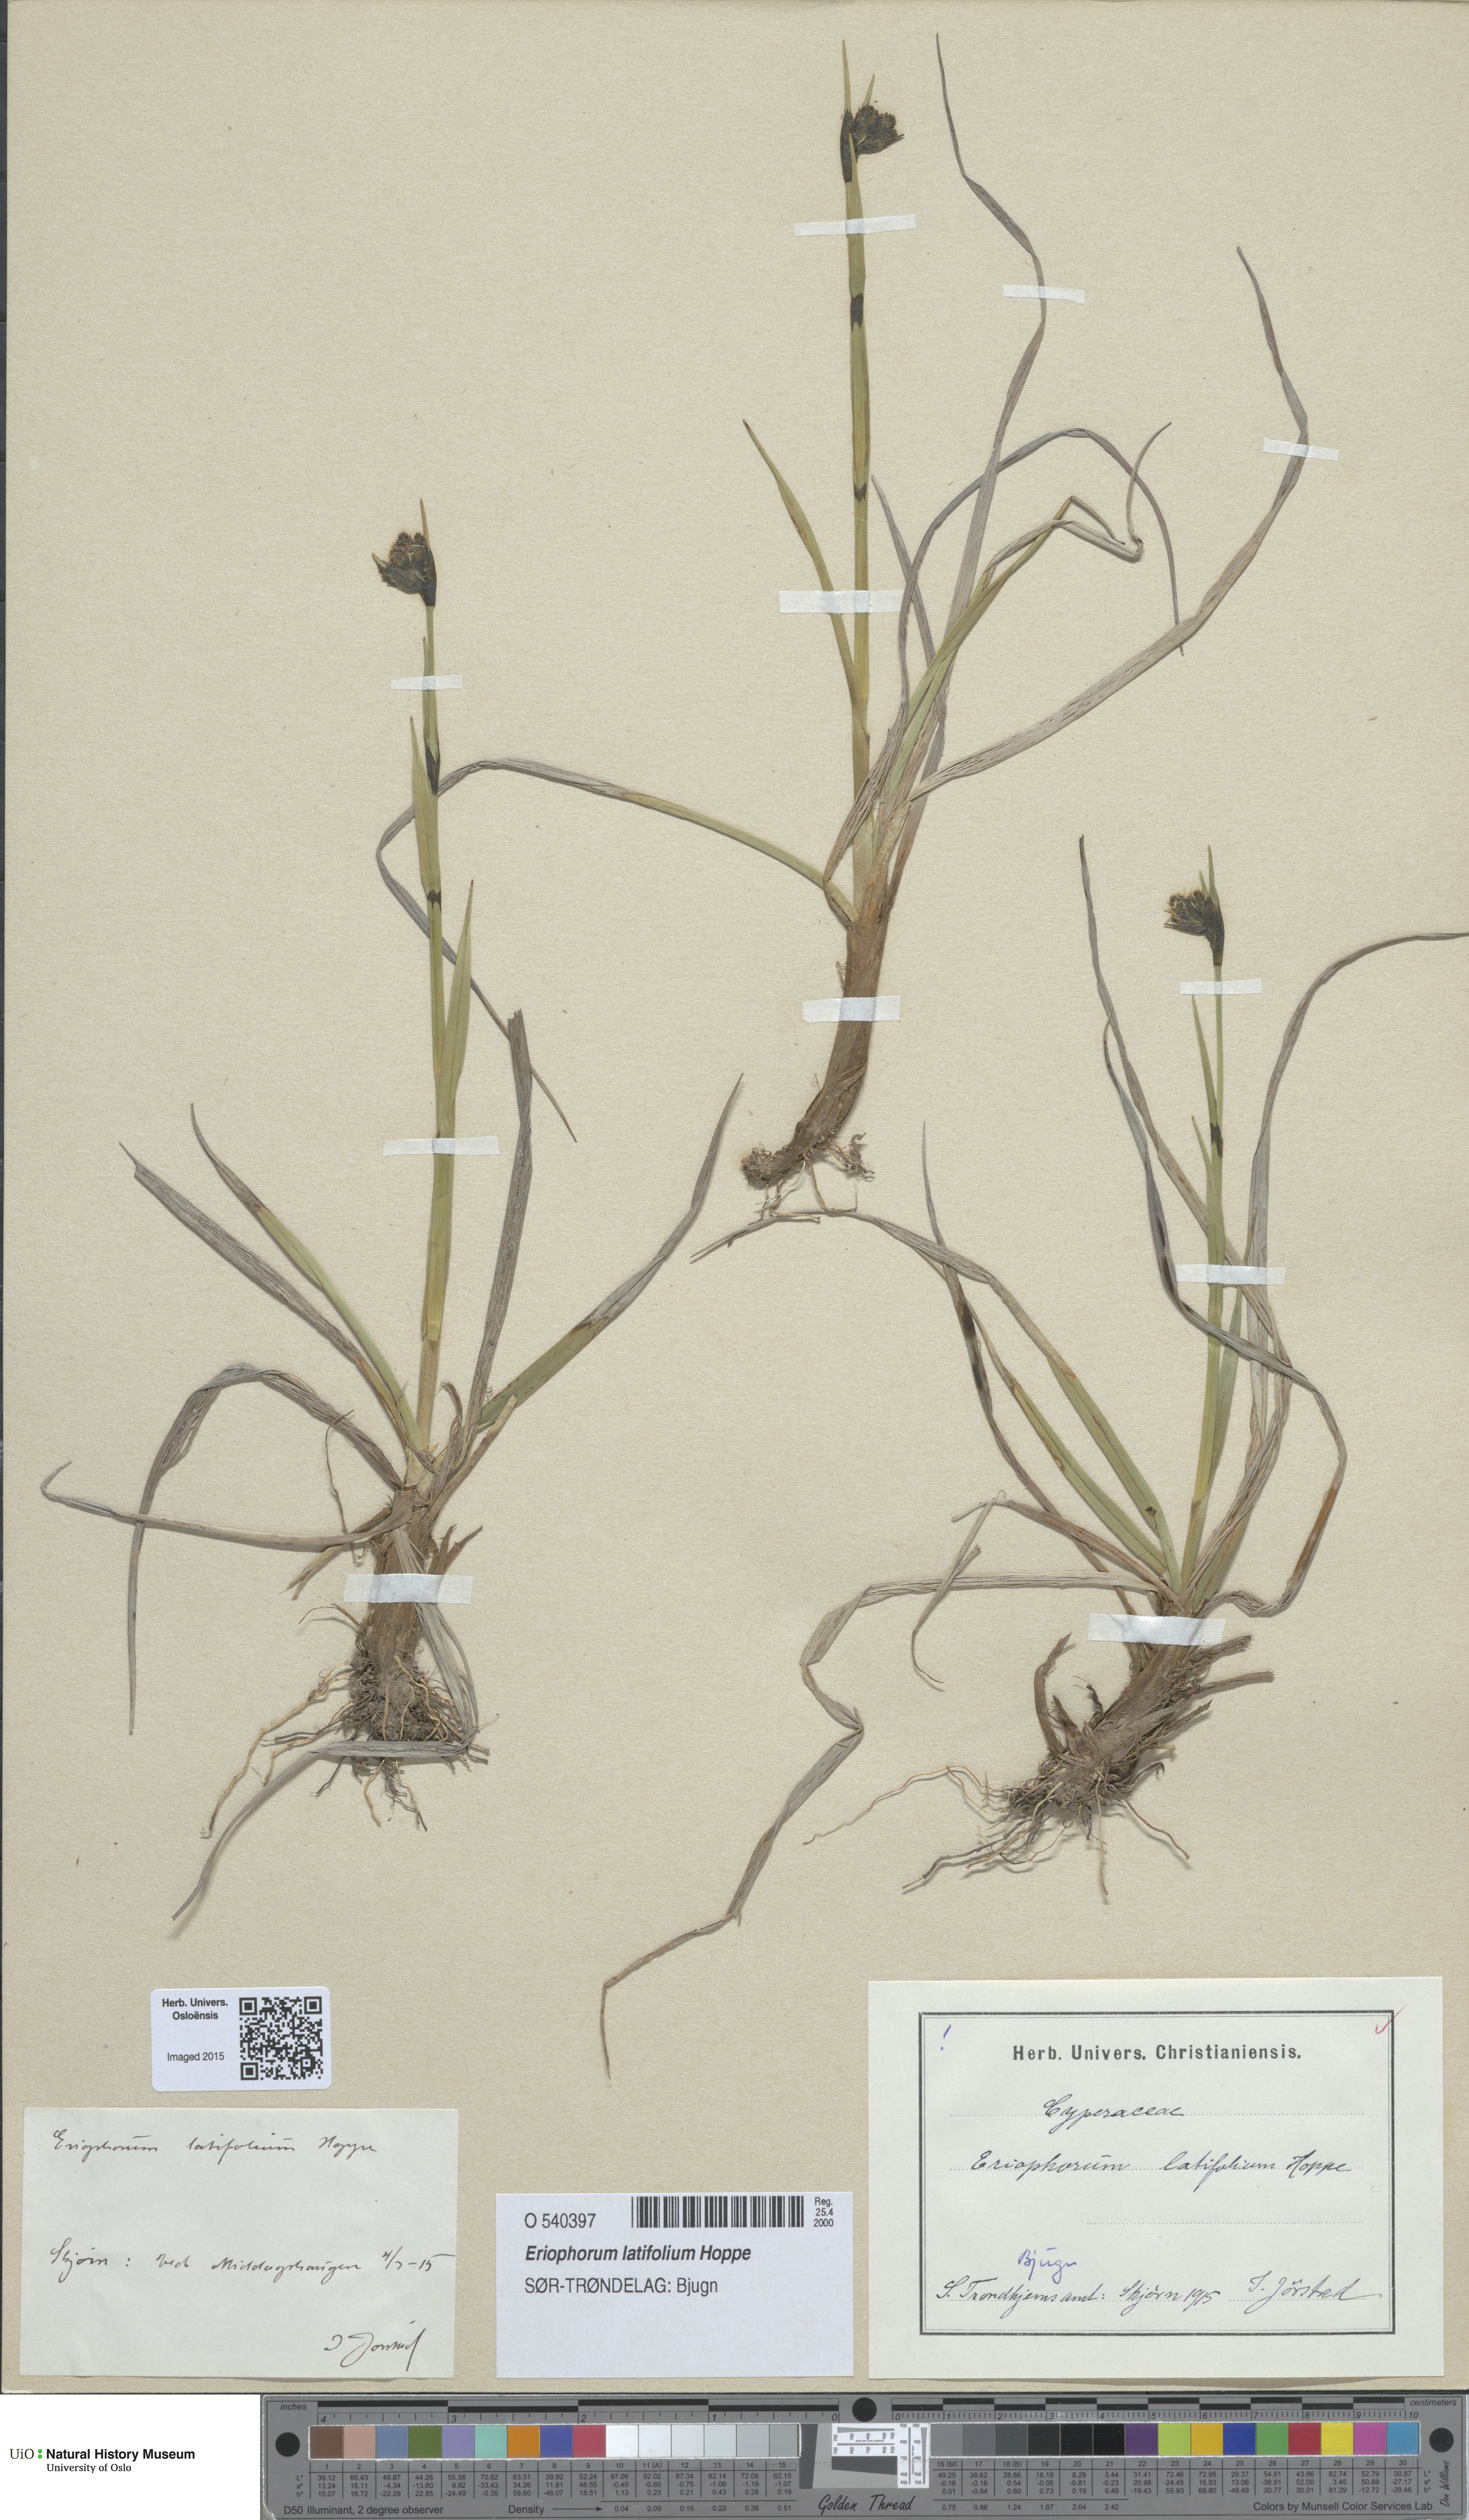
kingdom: Plantae
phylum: Tracheophyta
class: Liliopsida
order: Poales
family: Cyperaceae
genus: Eriophorum
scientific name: Eriophorum latifolium
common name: Broad-leaved cottongrass
